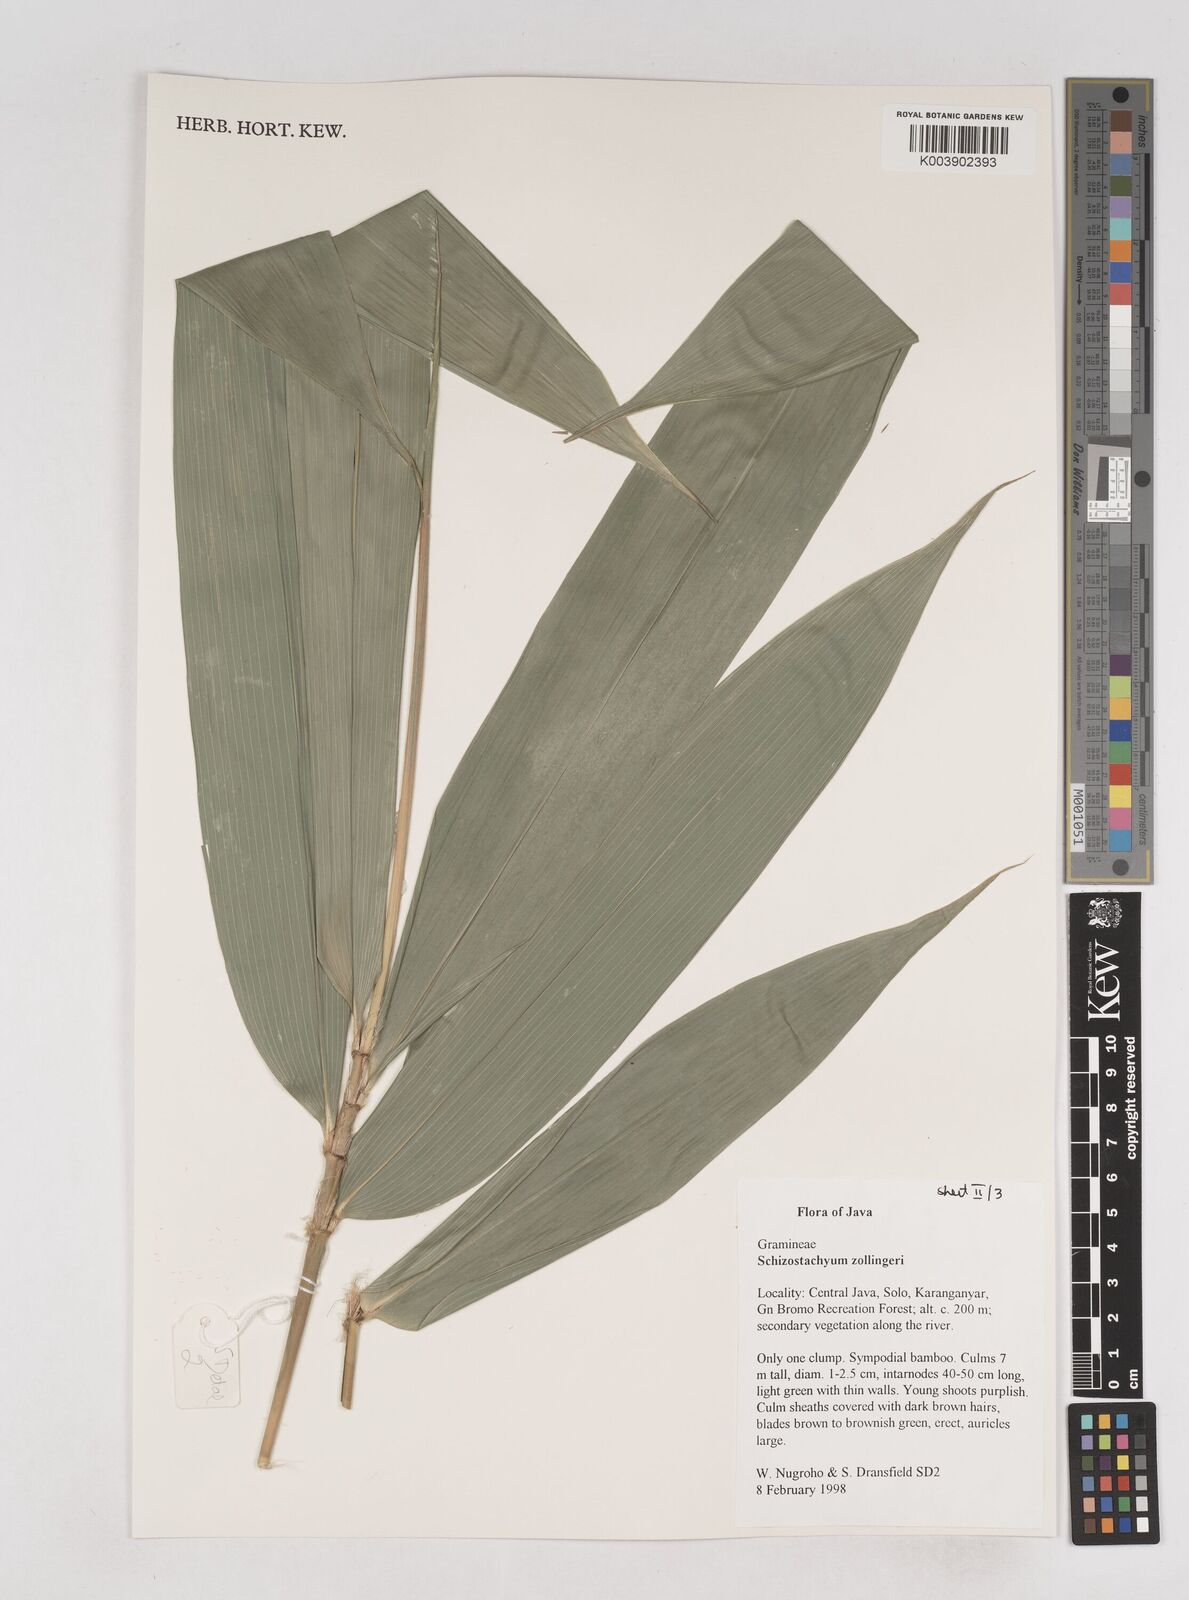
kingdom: Plantae
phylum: Tracheophyta
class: Liliopsida
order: Poales
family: Poaceae
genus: Schizostachyum
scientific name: Schizostachyum zollingeri
